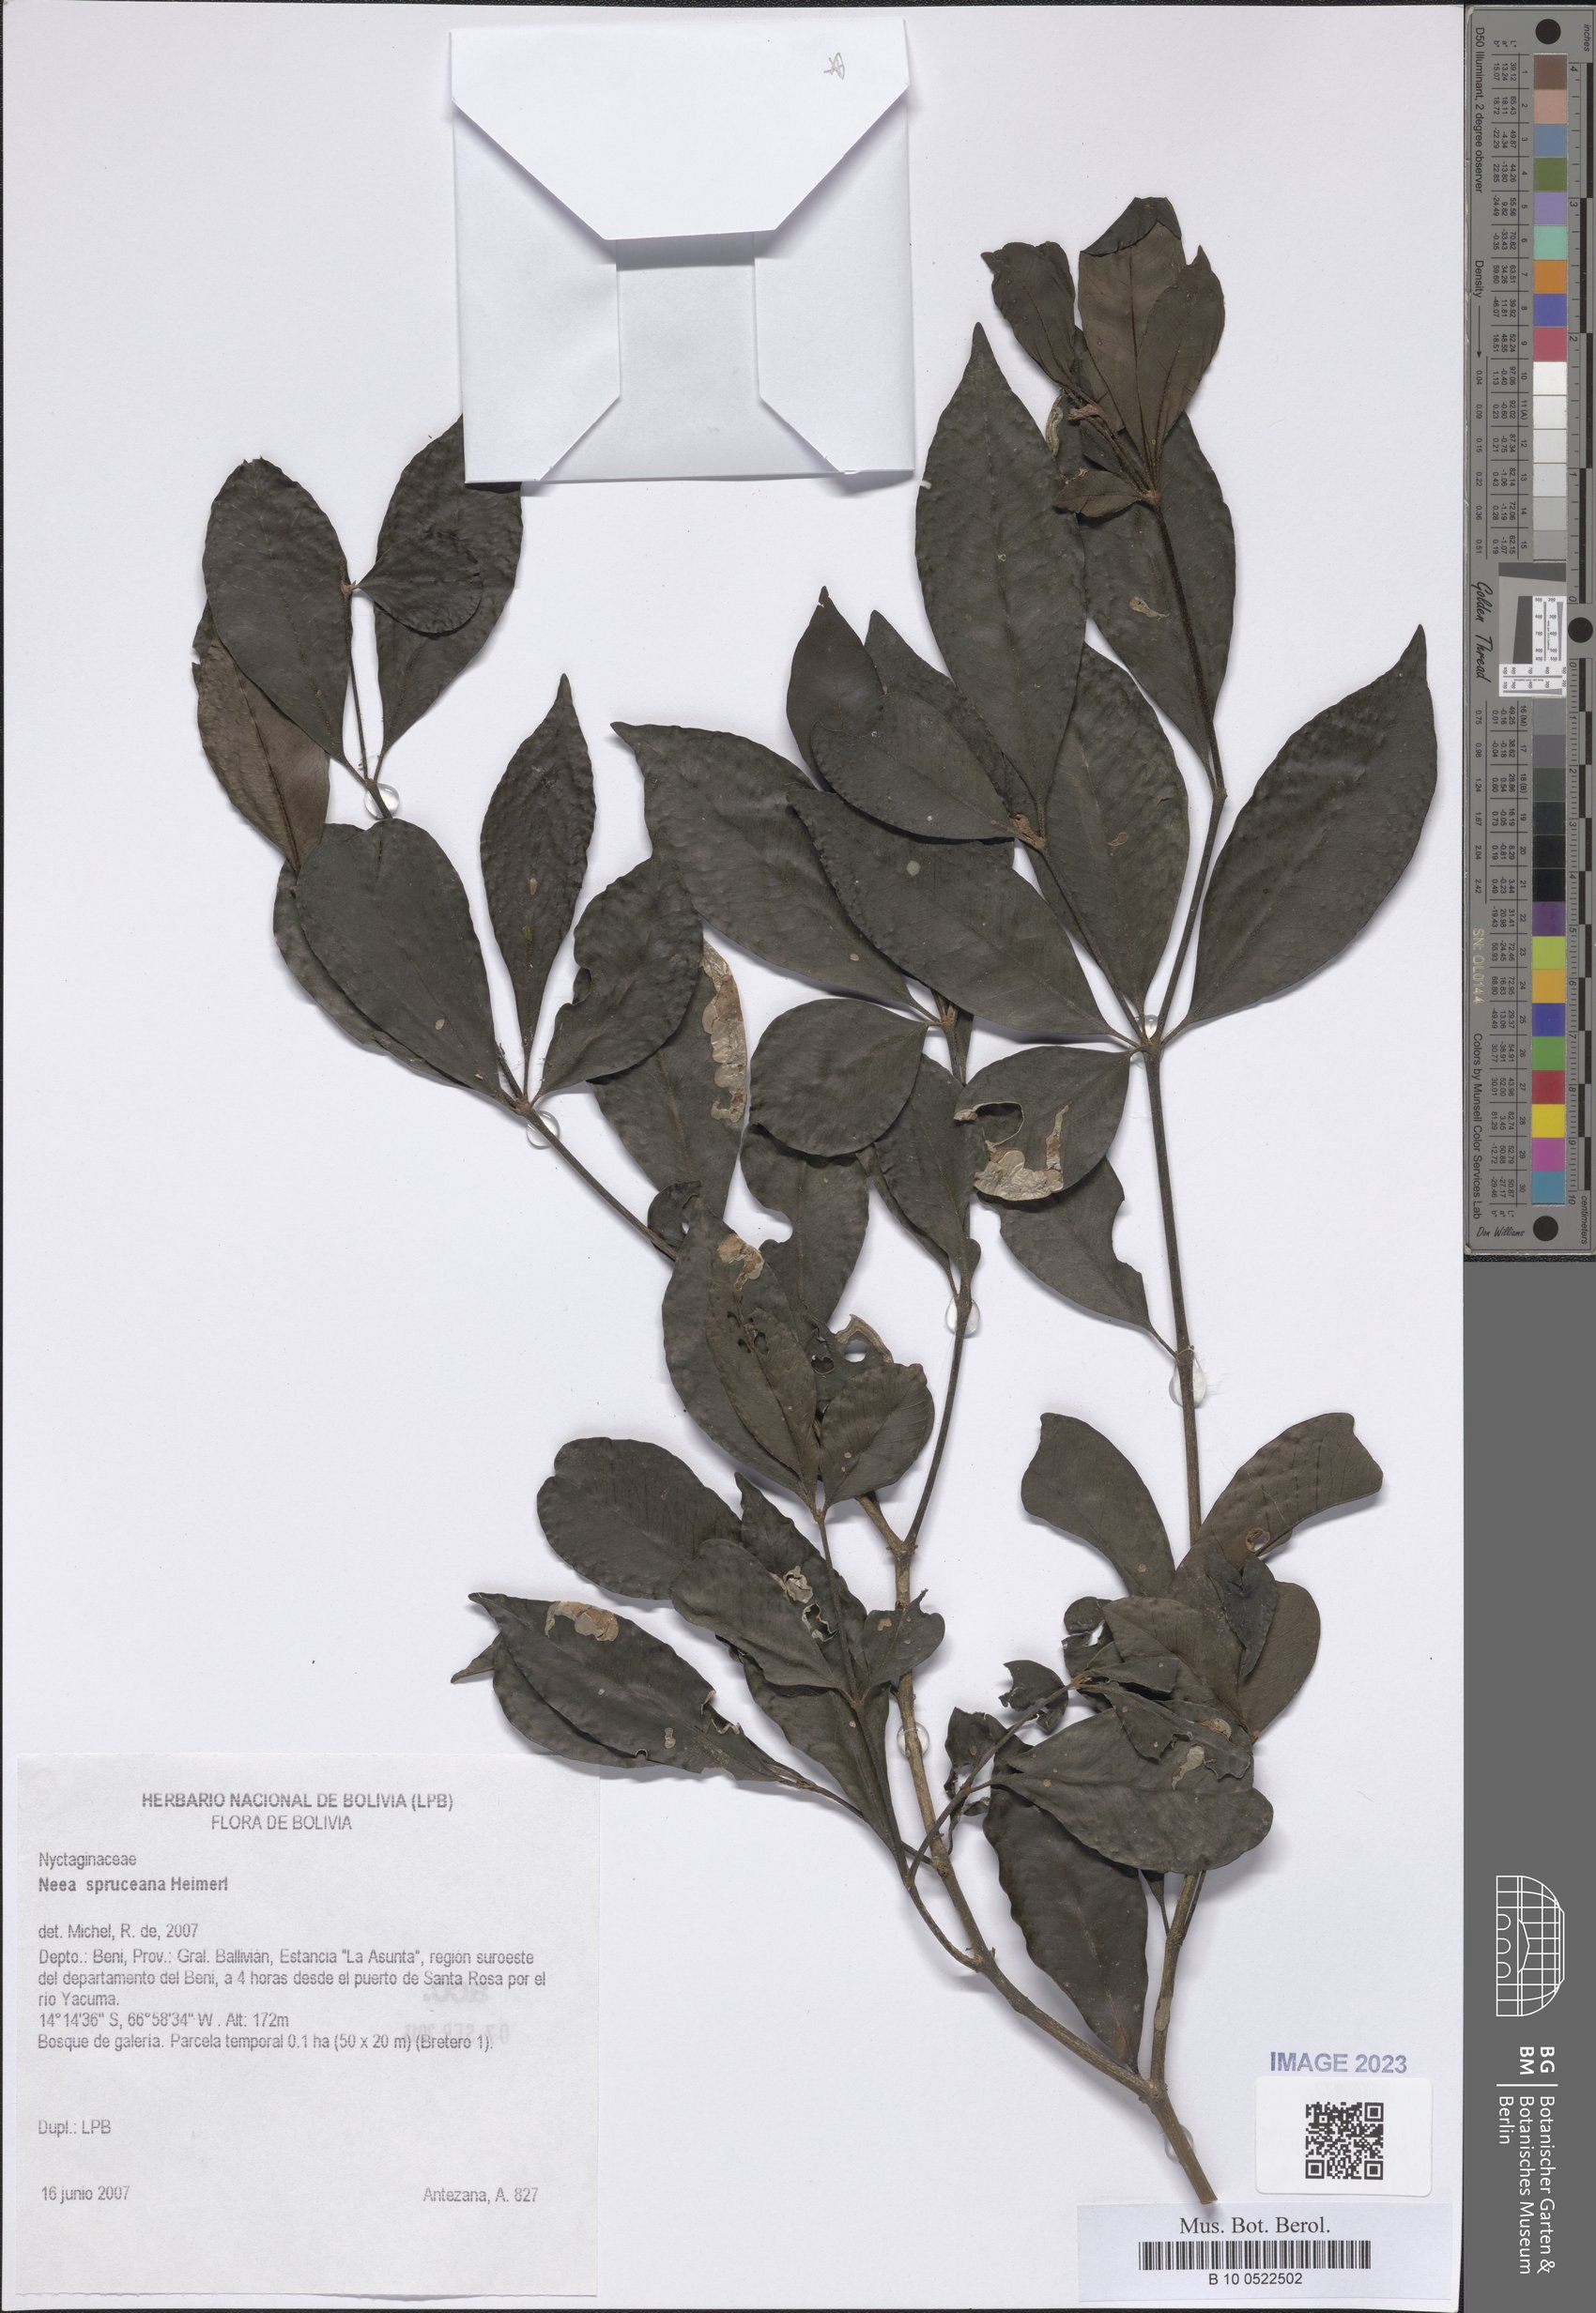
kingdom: Plantae
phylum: Tracheophyta
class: Magnoliopsida
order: Caryophyllales
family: Nyctaginaceae
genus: Neea
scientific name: Neea spruceana
